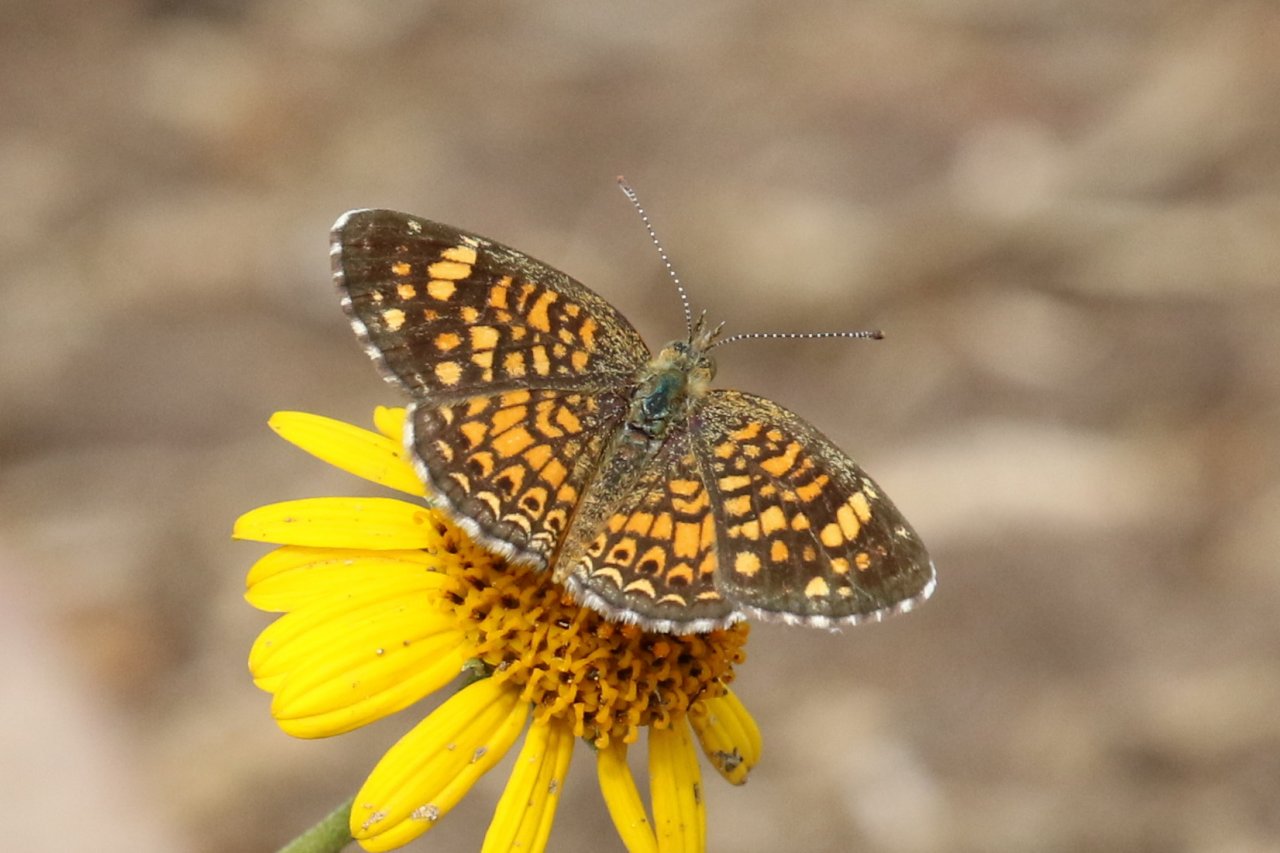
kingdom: Animalia
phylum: Arthropoda
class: Insecta
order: Lepidoptera
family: Nymphalidae
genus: Phyciodes
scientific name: Phyciodes vesta
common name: Vesta Crescent
